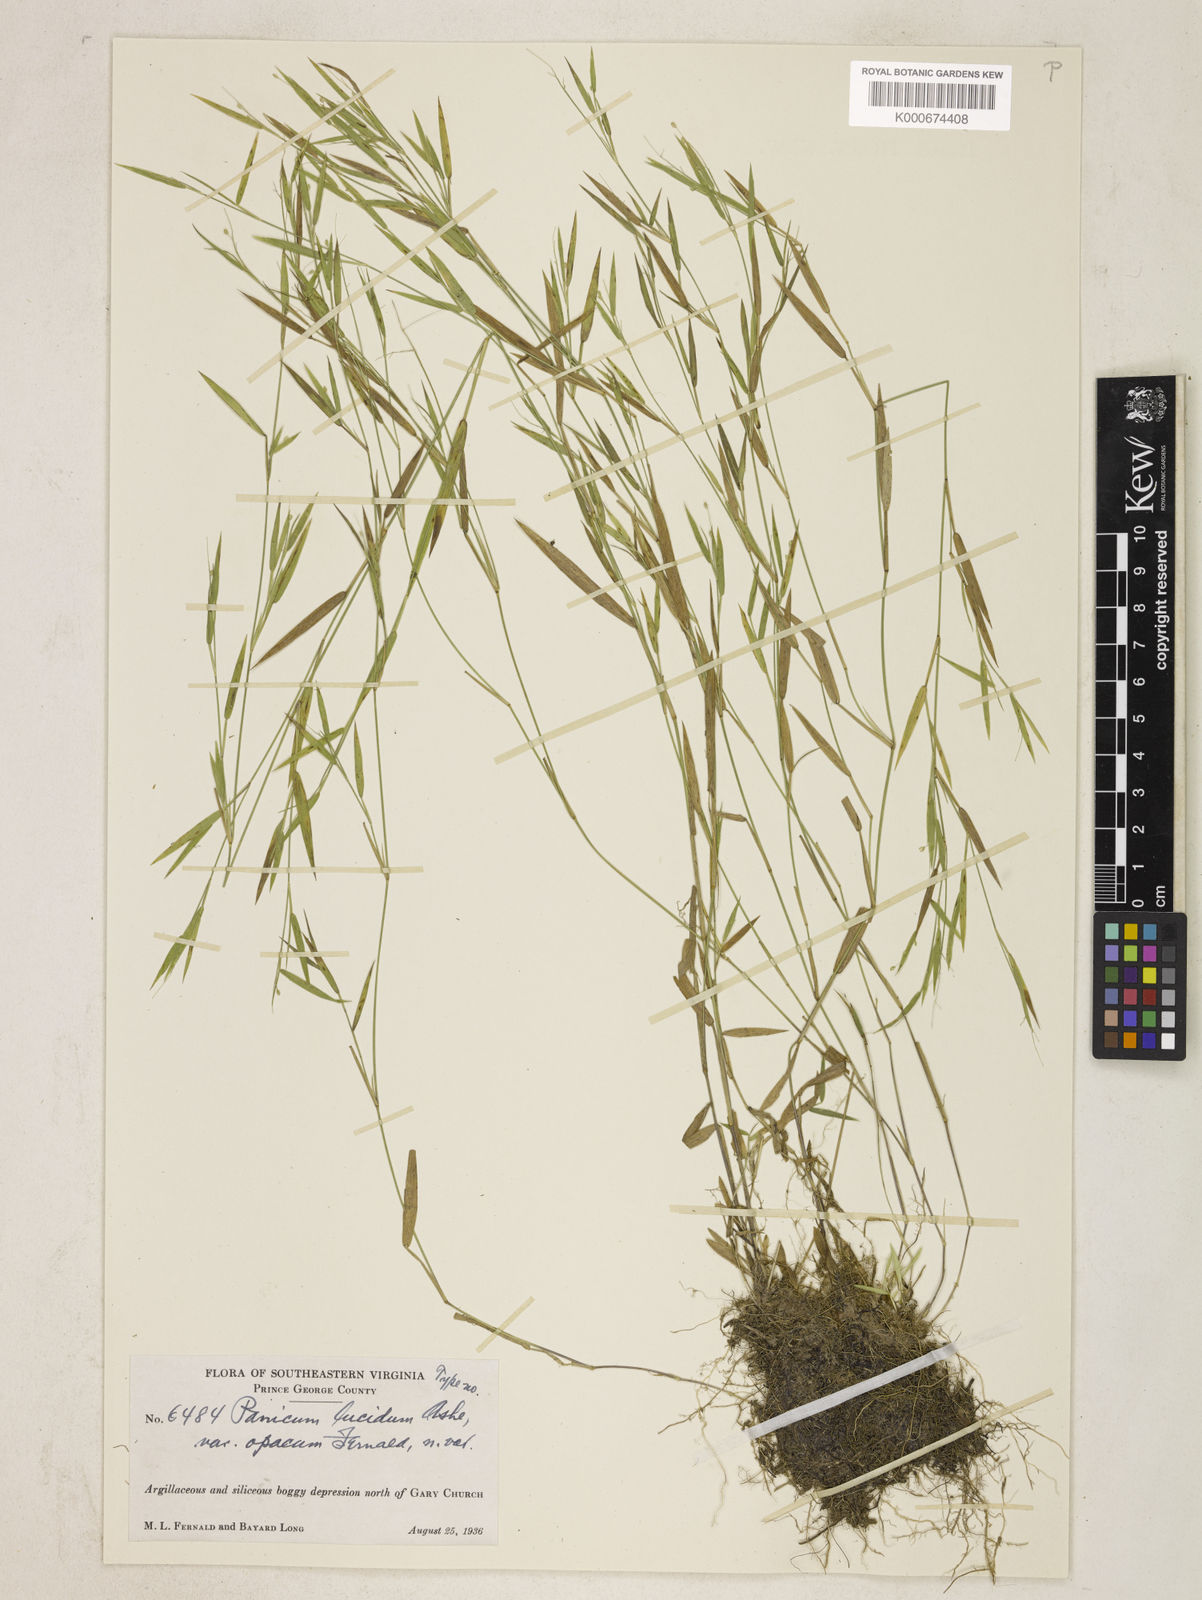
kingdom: Plantae
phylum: Tracheophyta
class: Liliopsida
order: Poales
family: Poaceae
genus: Dichanthelium
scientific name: Dichanthelium lucidum
